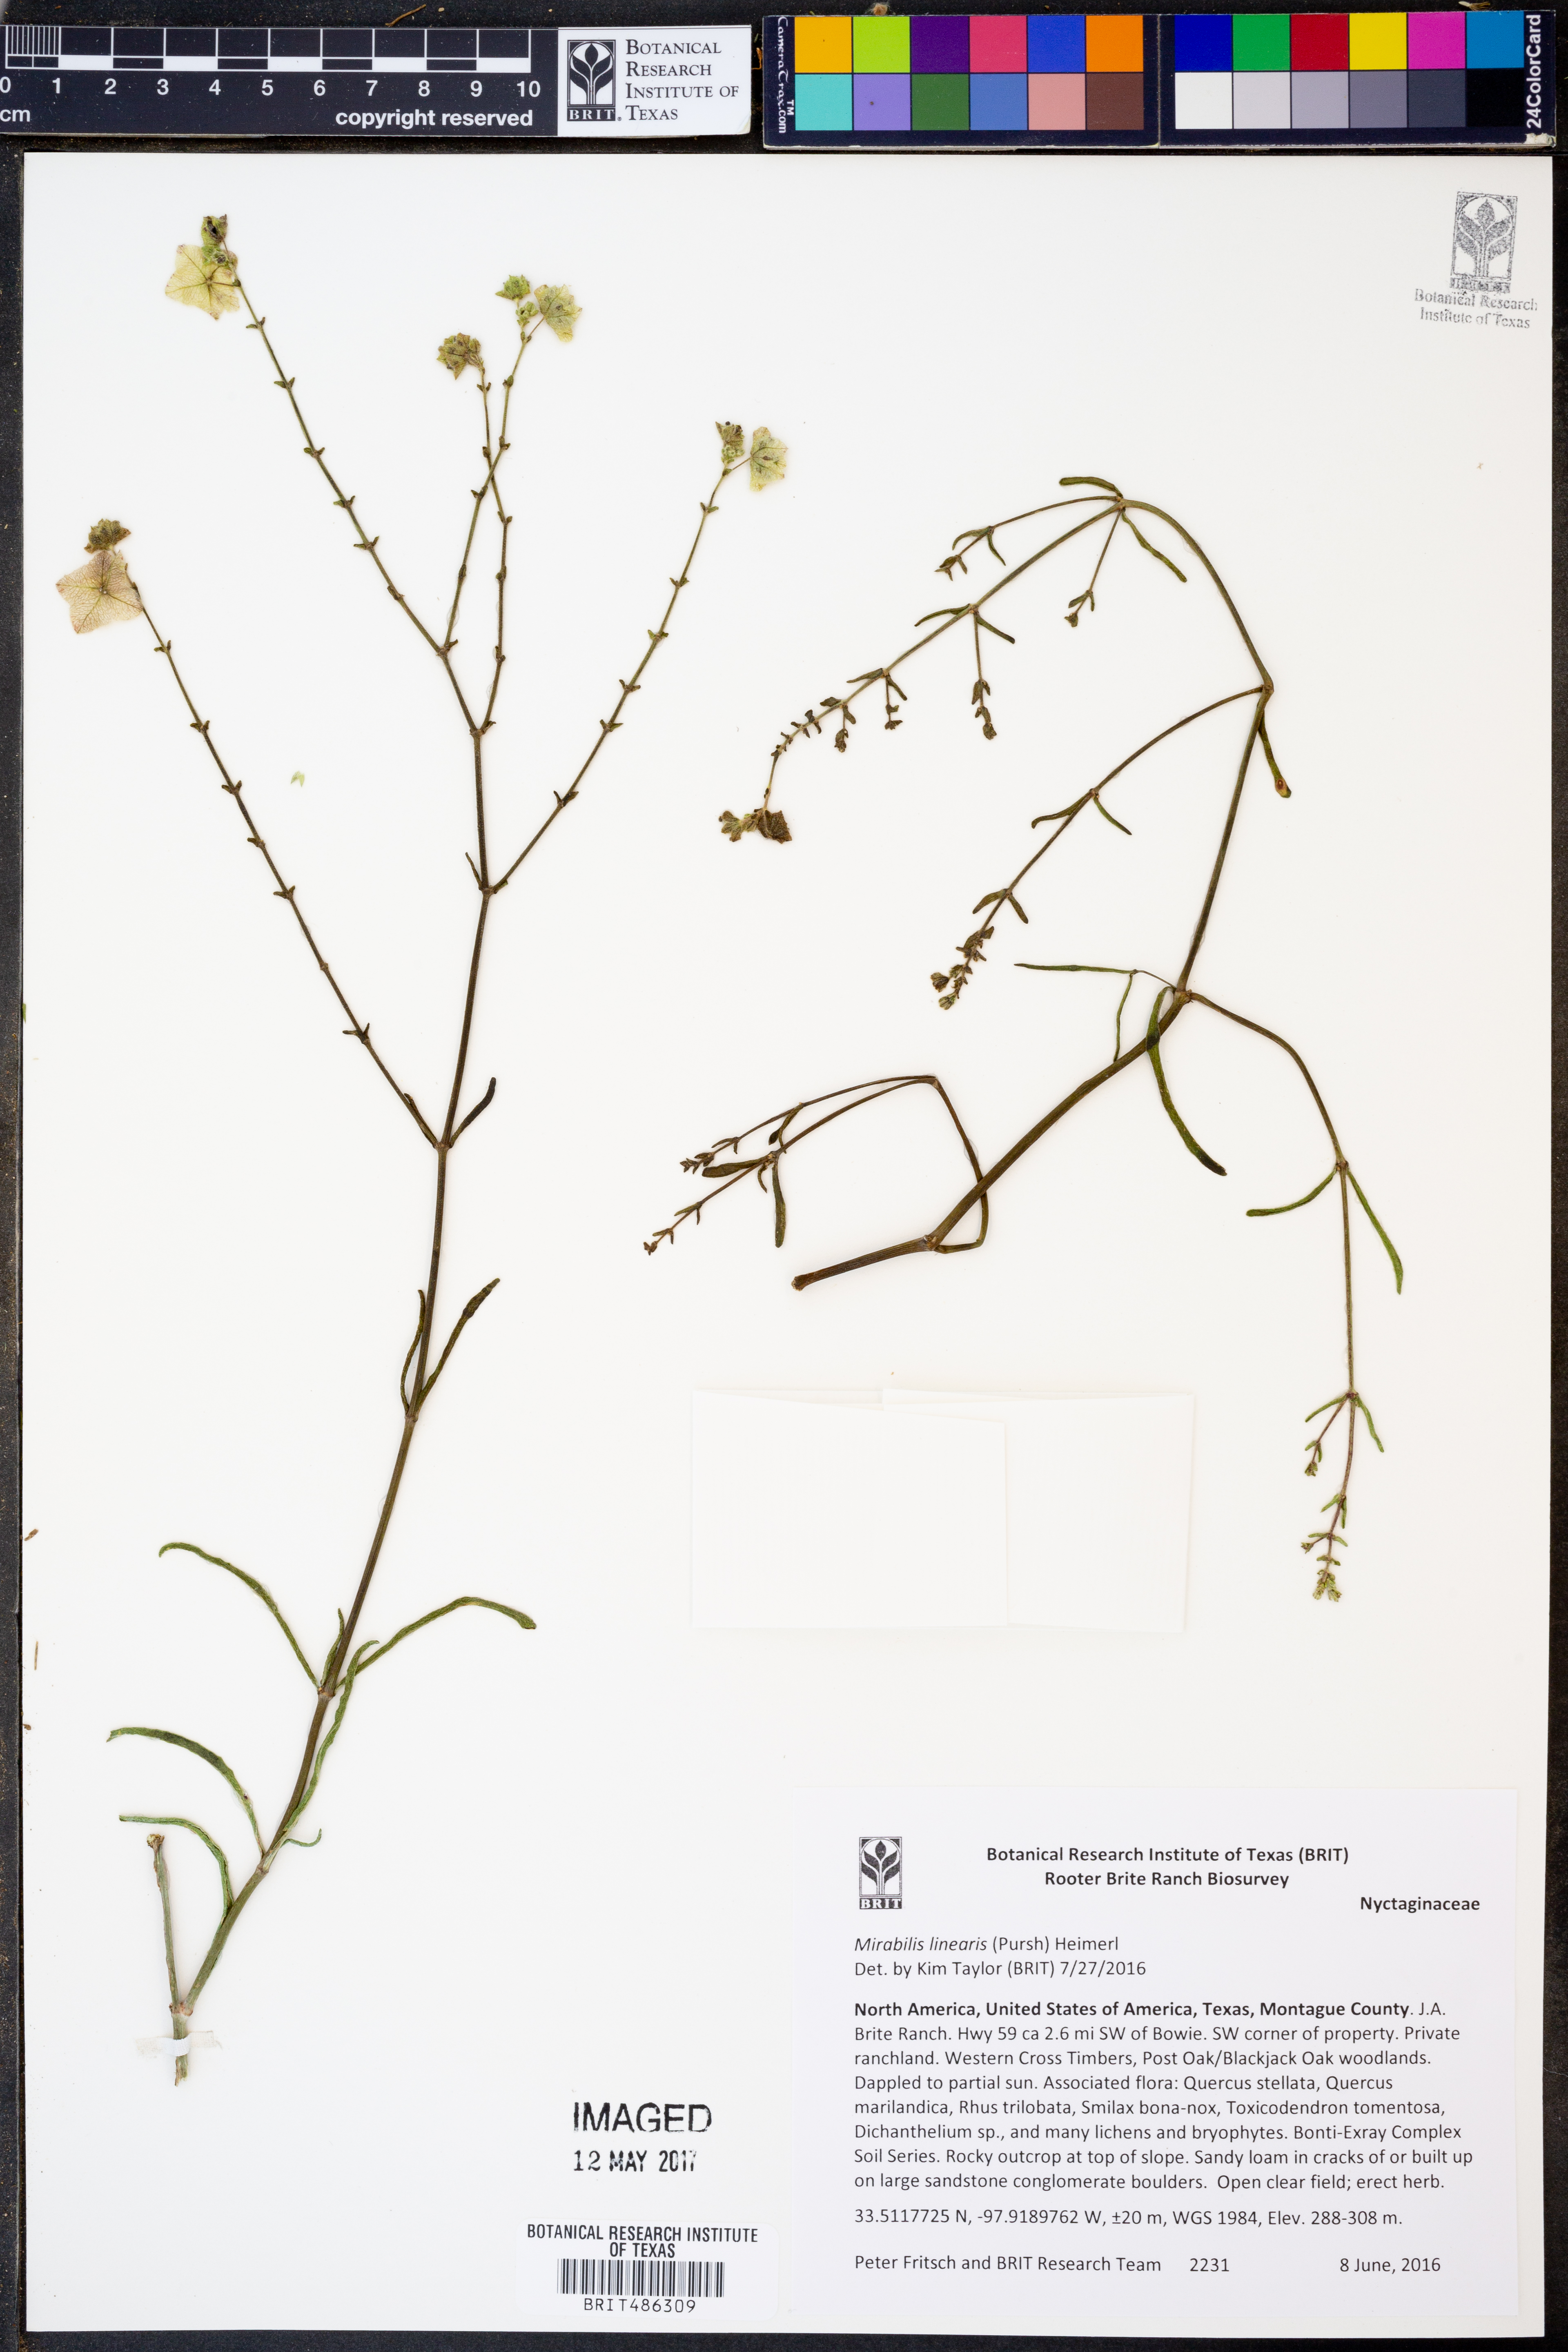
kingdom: Plantae
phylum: Tracheophyta
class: Magnoliopsida
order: Caryophyllales
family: Nyctaginaceae
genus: Mirabilis
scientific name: Mirabilis linearis
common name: Linear-leaved four-o'clock
